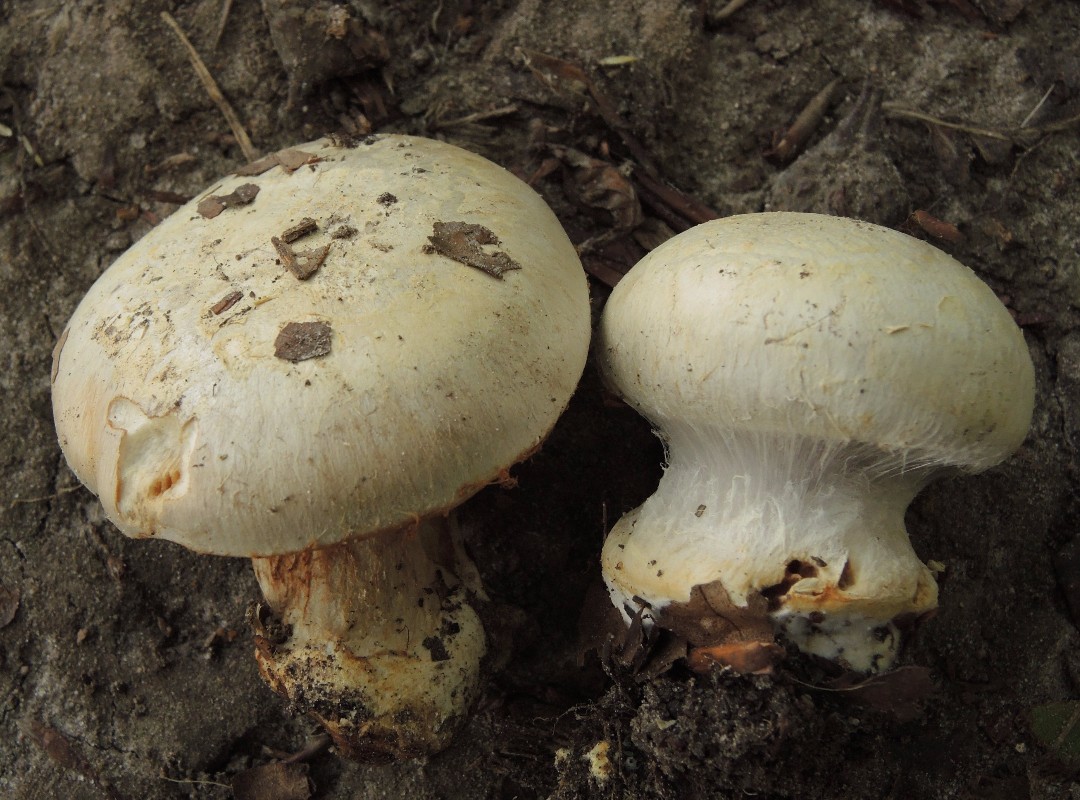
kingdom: Fungi
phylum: Basidiomycota
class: Agaricomycetes
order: Agaricales
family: Cortinariaceae
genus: Cortinarius
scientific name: Cortinarius foetens
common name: stribet slørhat
